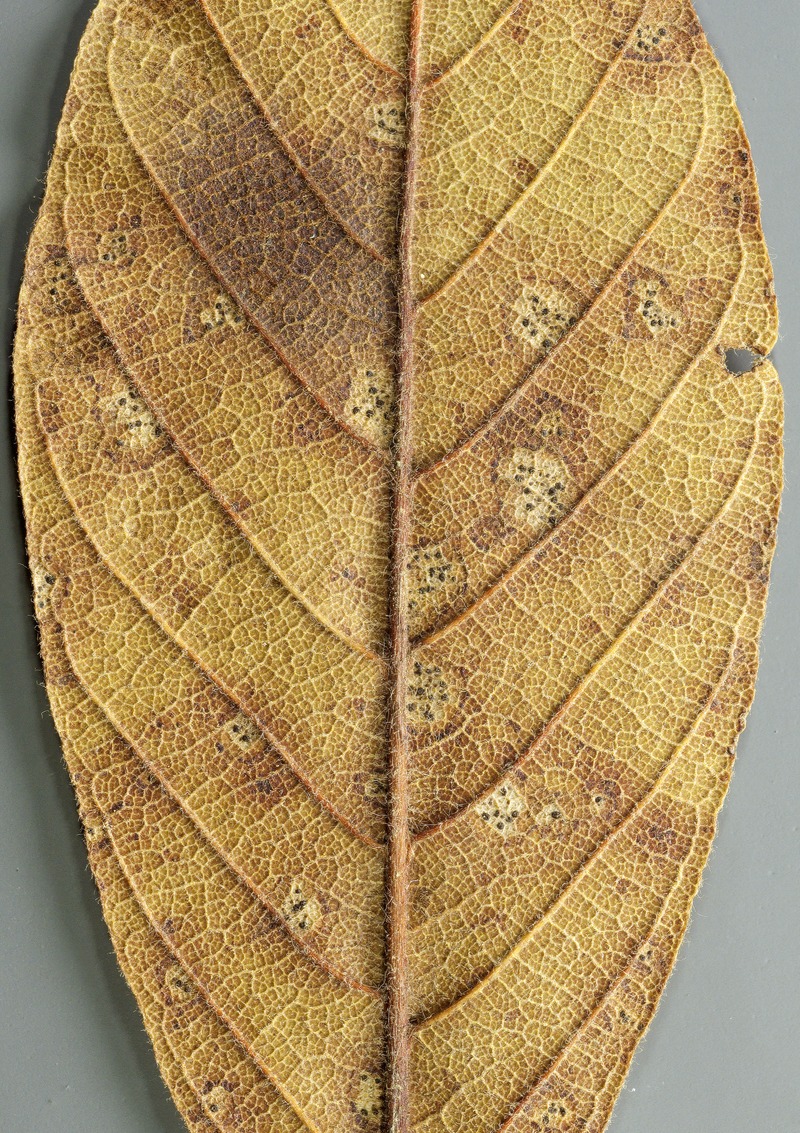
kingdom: Fungi
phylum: Ascomycota
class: Leotiomycetes
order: Helotiales
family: Helotiaceae
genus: Gorgoniceps
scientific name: Gorgoniceps kuitonsis
